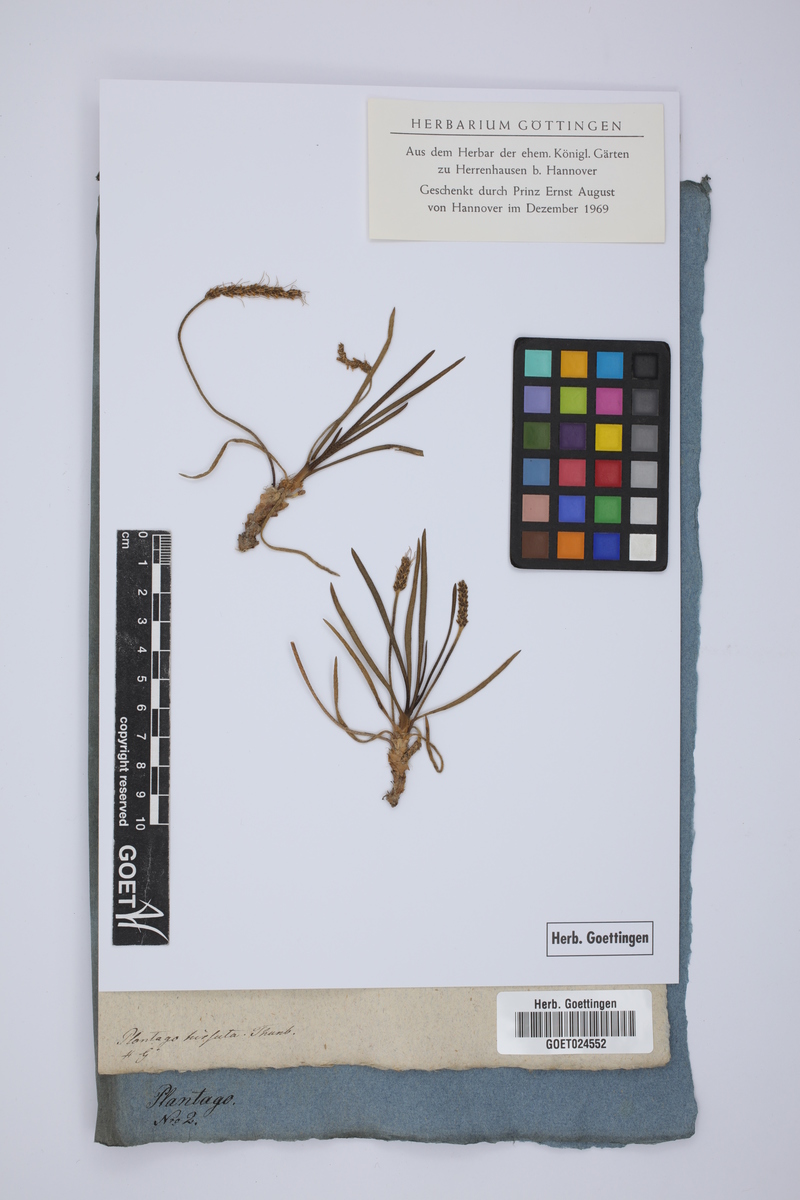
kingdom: Plantae
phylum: Tracheophyta
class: Magnoliopsida
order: Lamiales
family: Plantaginaceae
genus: Plantago
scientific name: Plantago limensis
